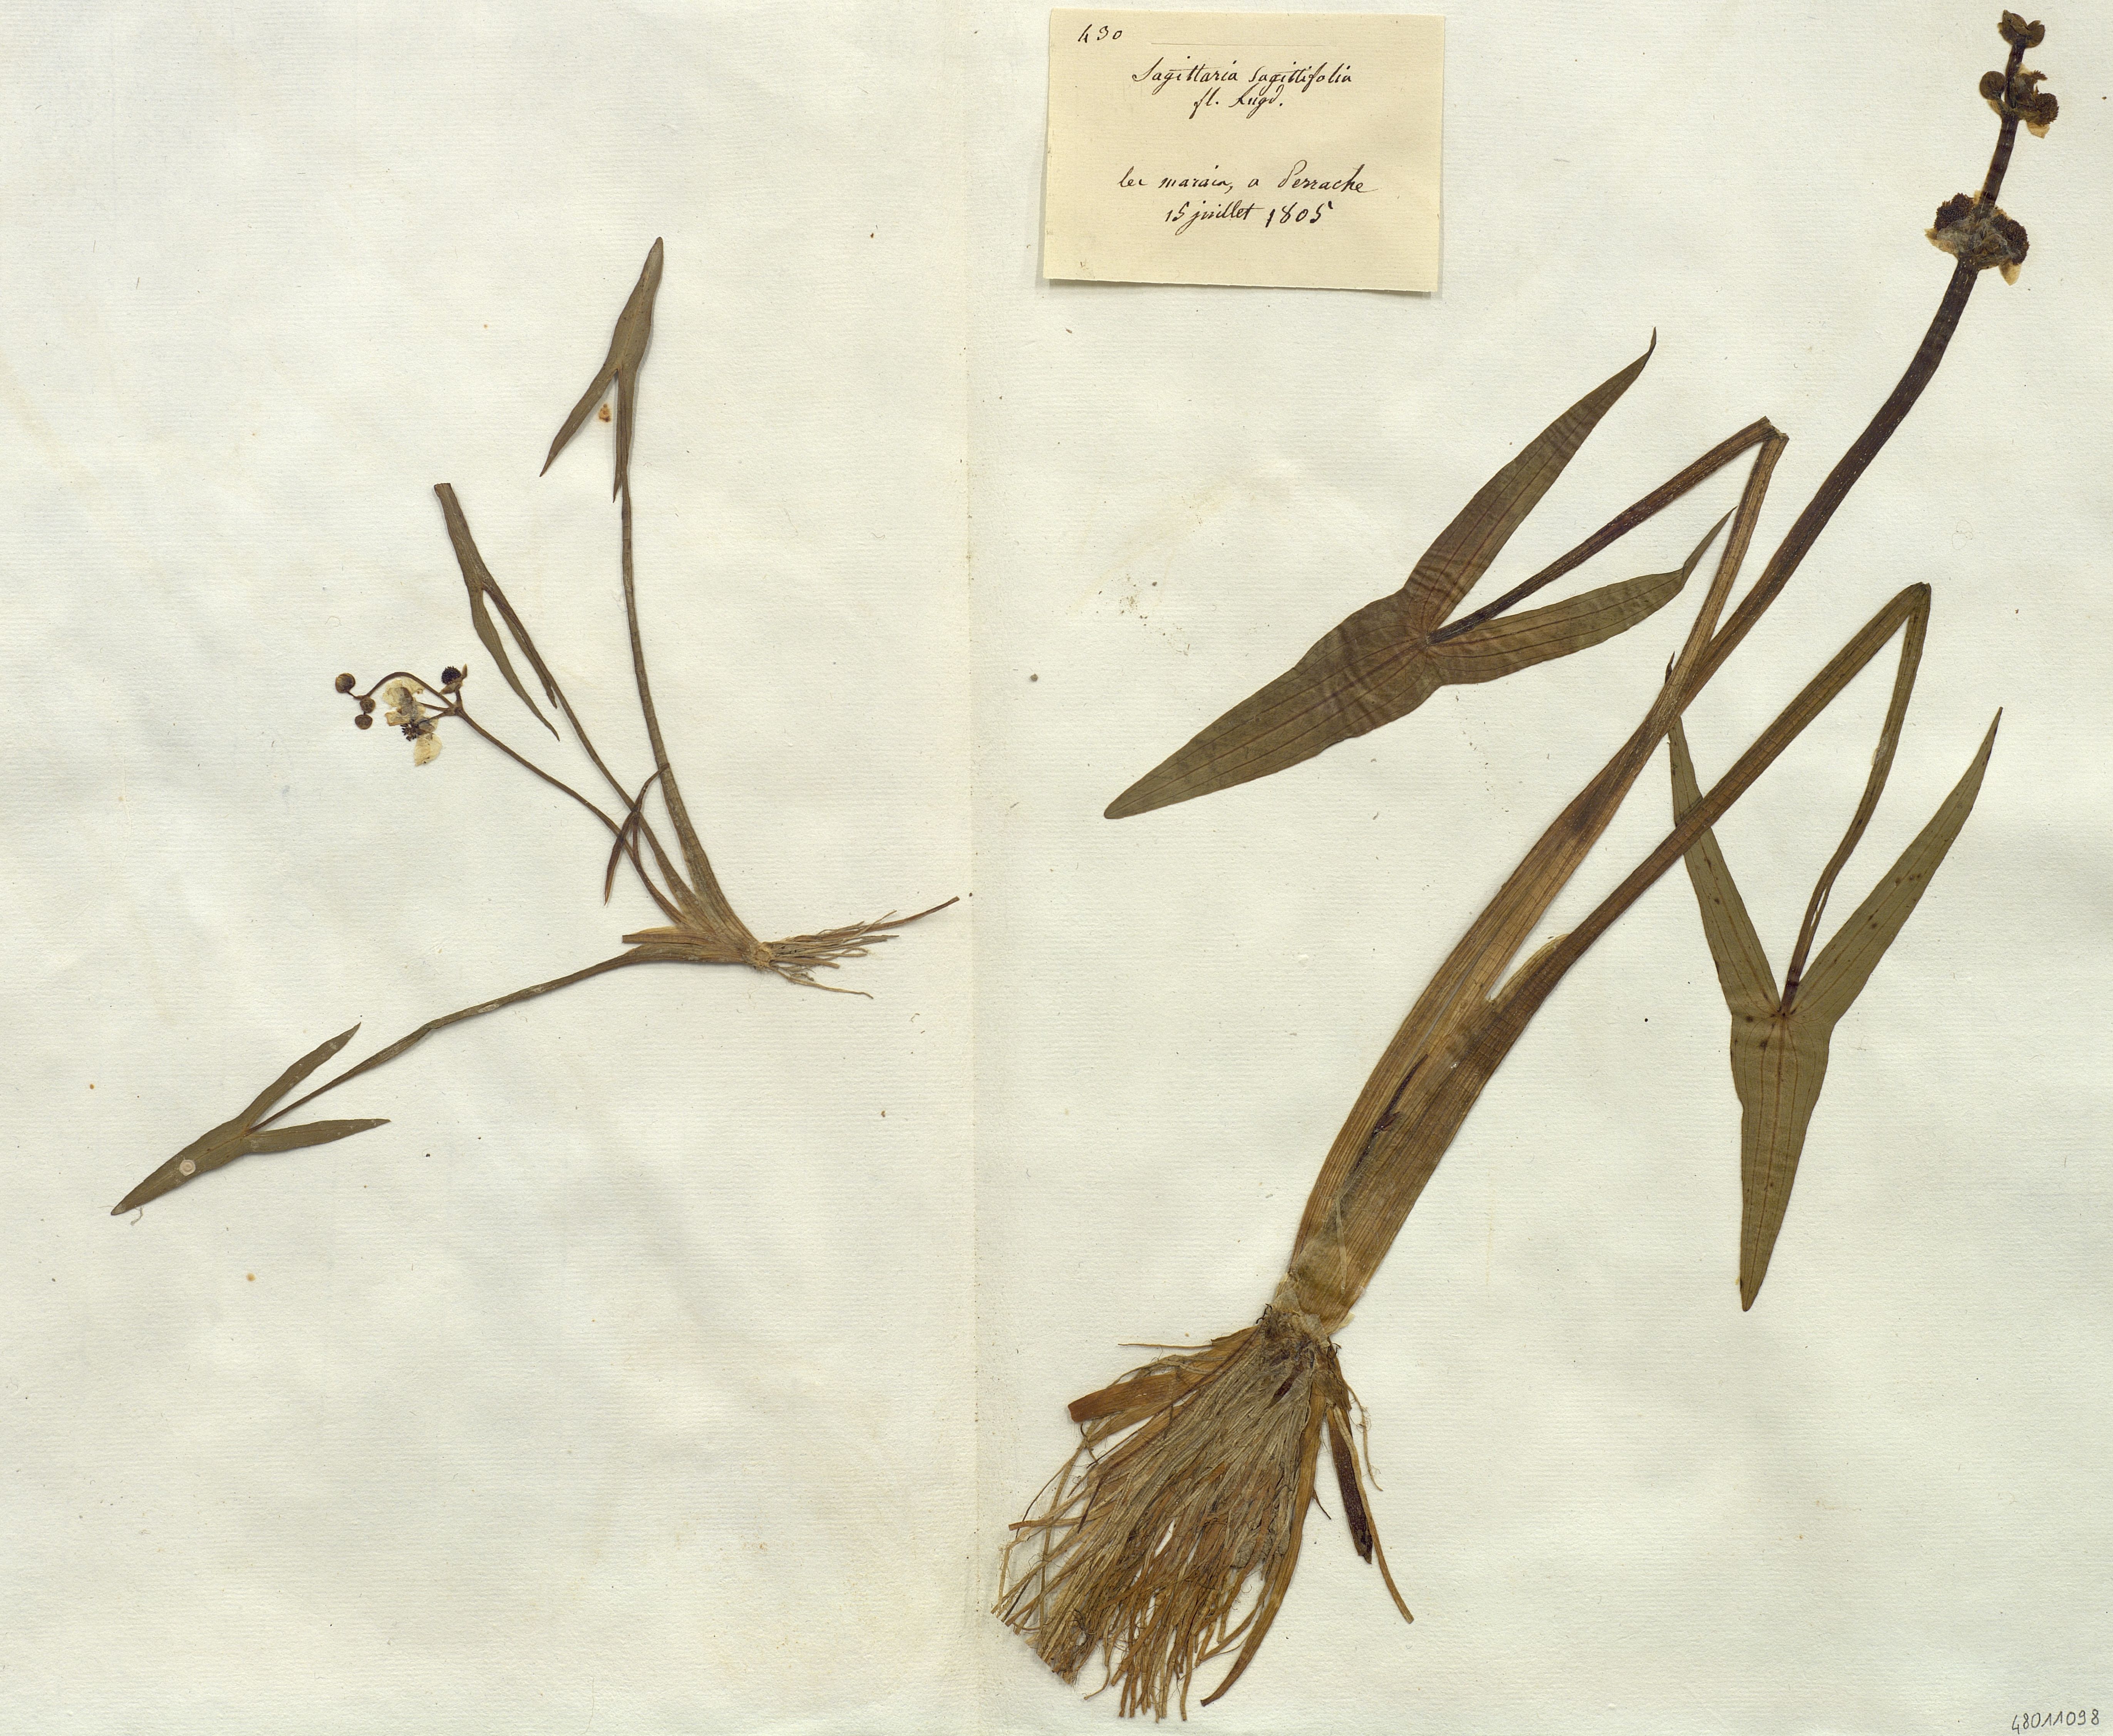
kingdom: Plantae
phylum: Tracheophyta
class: Liliopsida
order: Alismatales
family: Alismataceae
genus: Sagittaria
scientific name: Sagittaria sagittifolia
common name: Arrowhead
